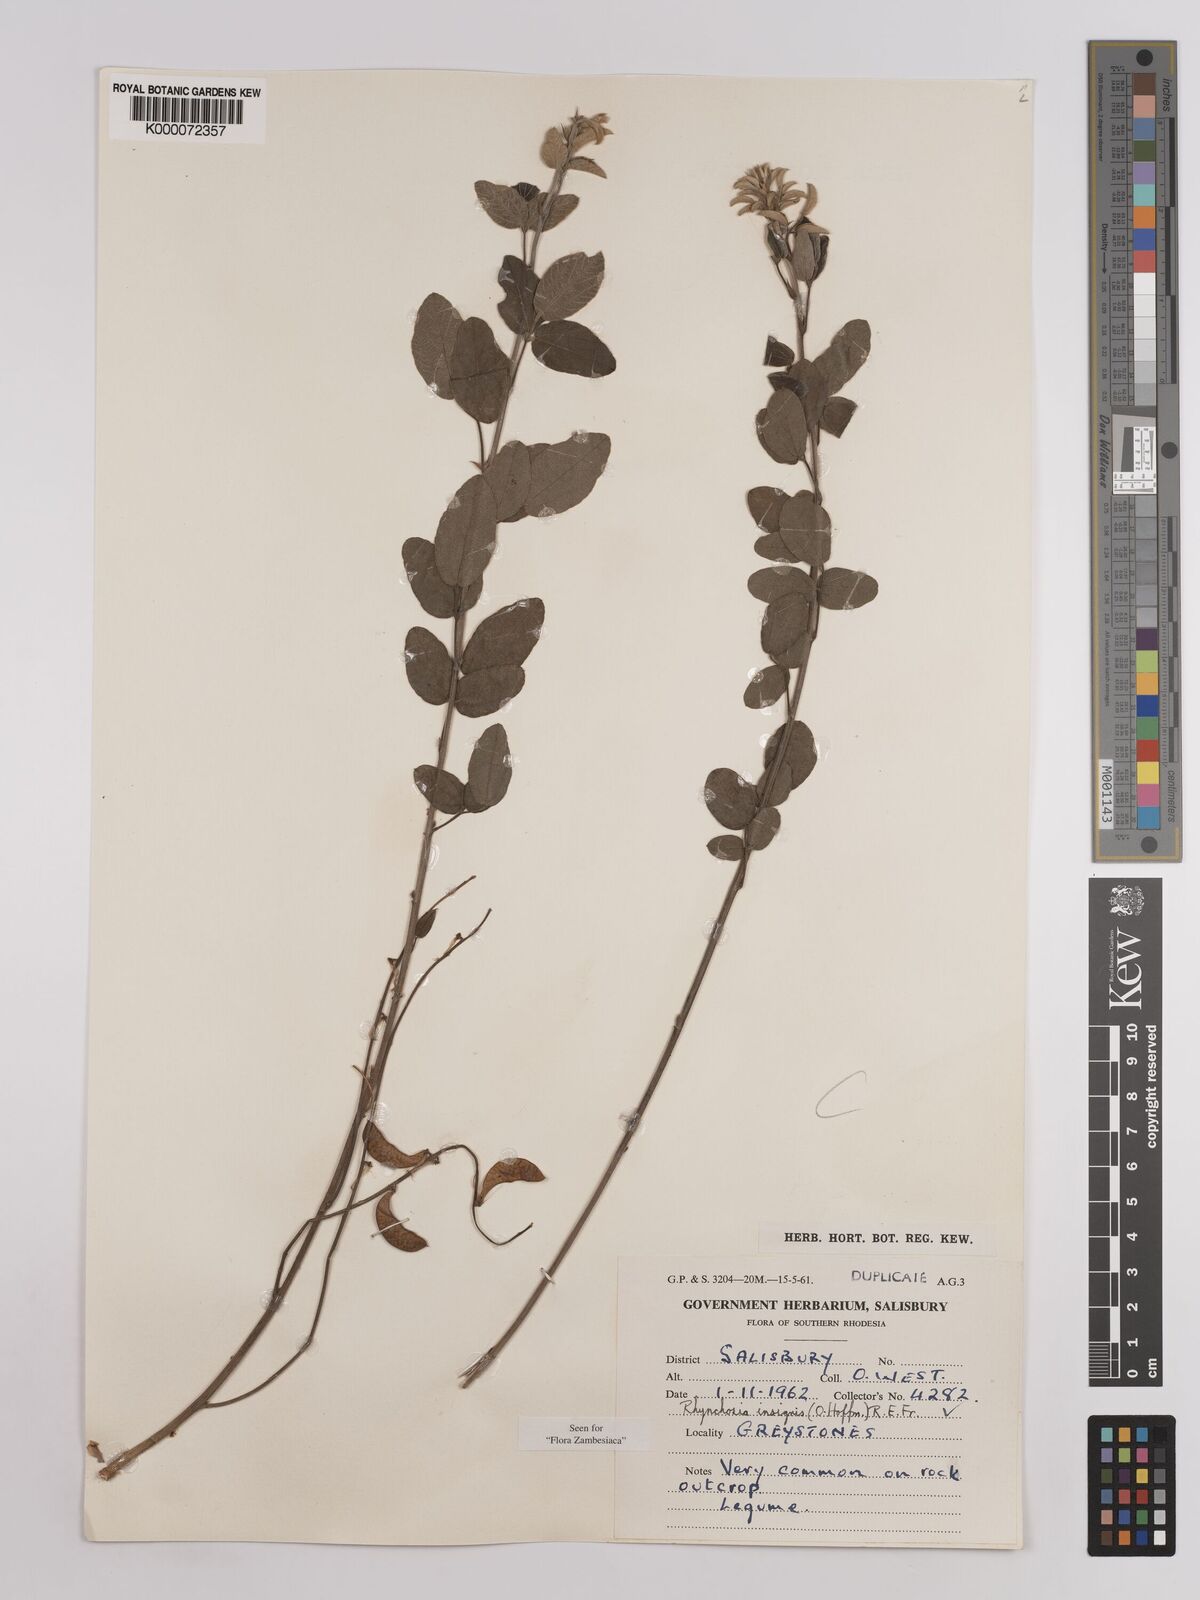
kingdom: Plantae
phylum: Tracheophyta
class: Magnoliopsida
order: Fabales
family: Fabaceae
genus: Rhynchosia
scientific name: Rhynchosia insignis
